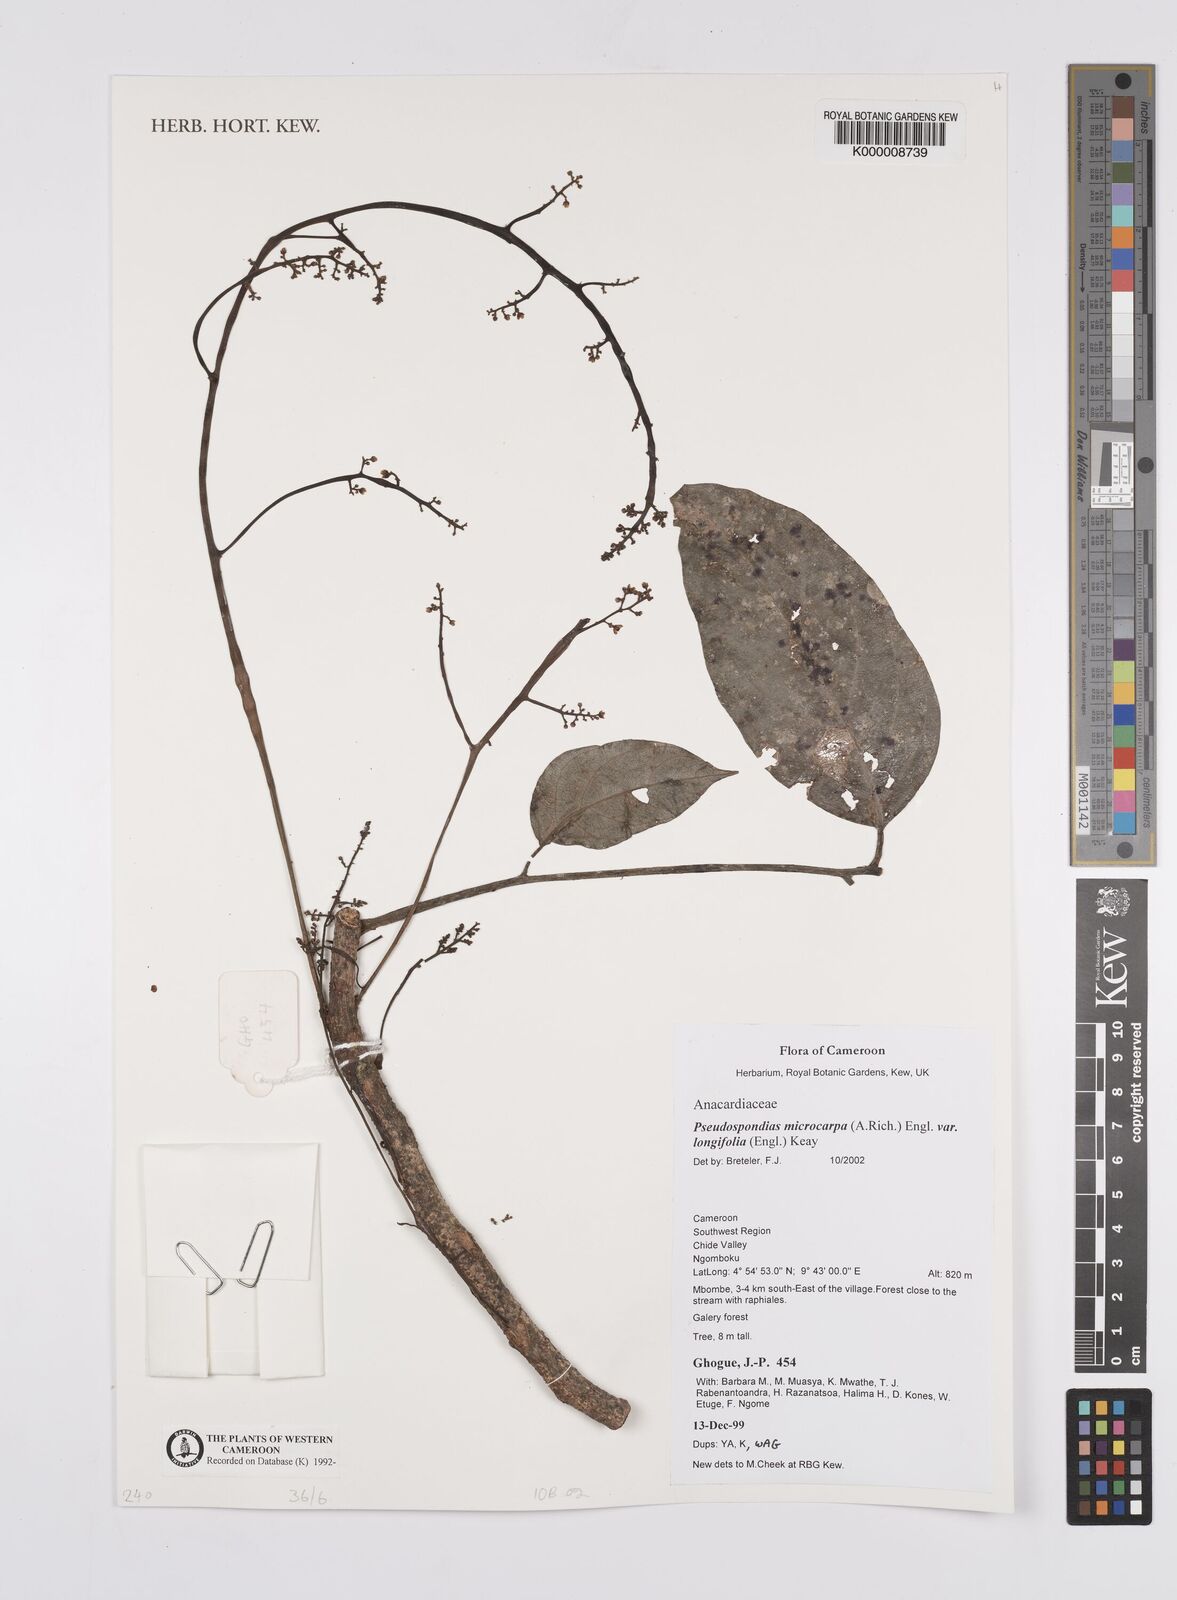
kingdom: Plantae
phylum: Tracheophyta
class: Magnoliopsida
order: Sapindales
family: Anacardiaceae
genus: Pseudospondias
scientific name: Pseudospondias microcarpa
